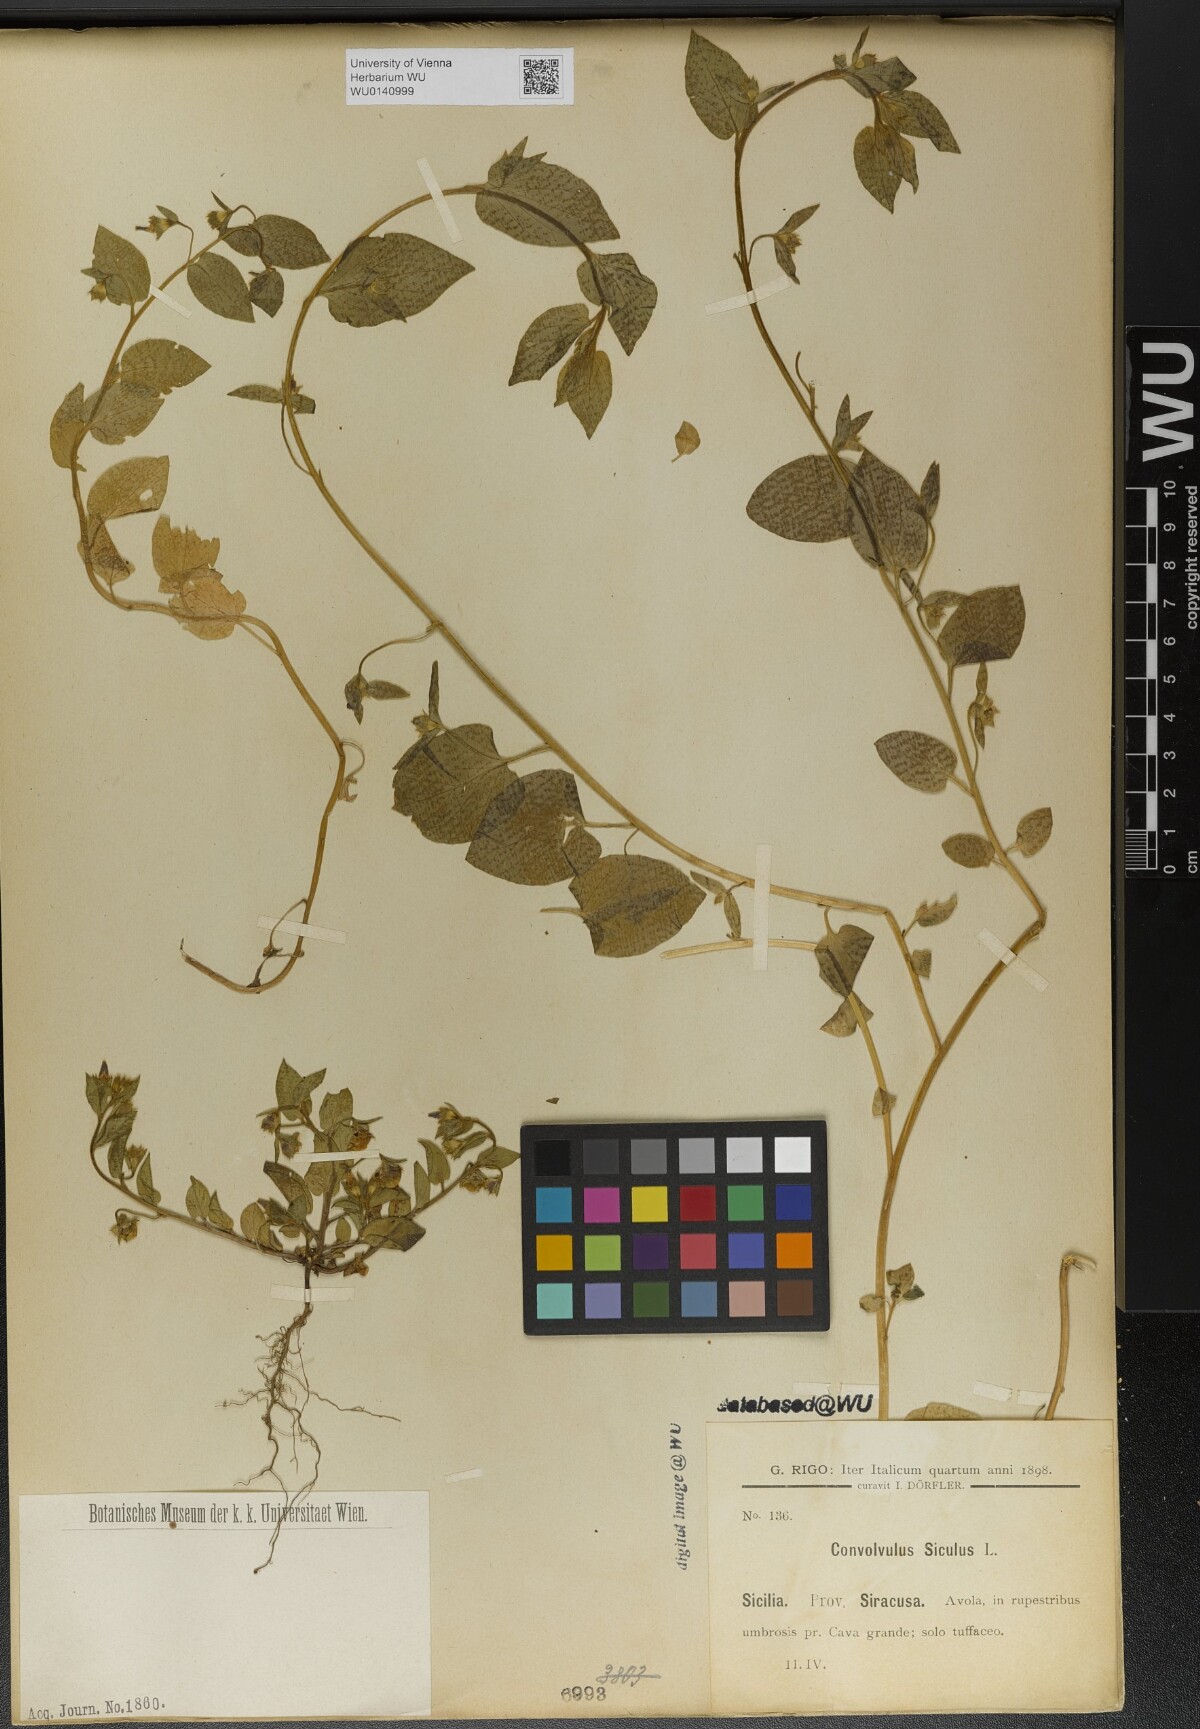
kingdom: Plantae
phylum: Tracheophyta
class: Magnoliopsida
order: Solanales
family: Convolvulaceae
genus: Convolvulus
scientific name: Convolvulus siculus
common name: Small blue-convolvulus
